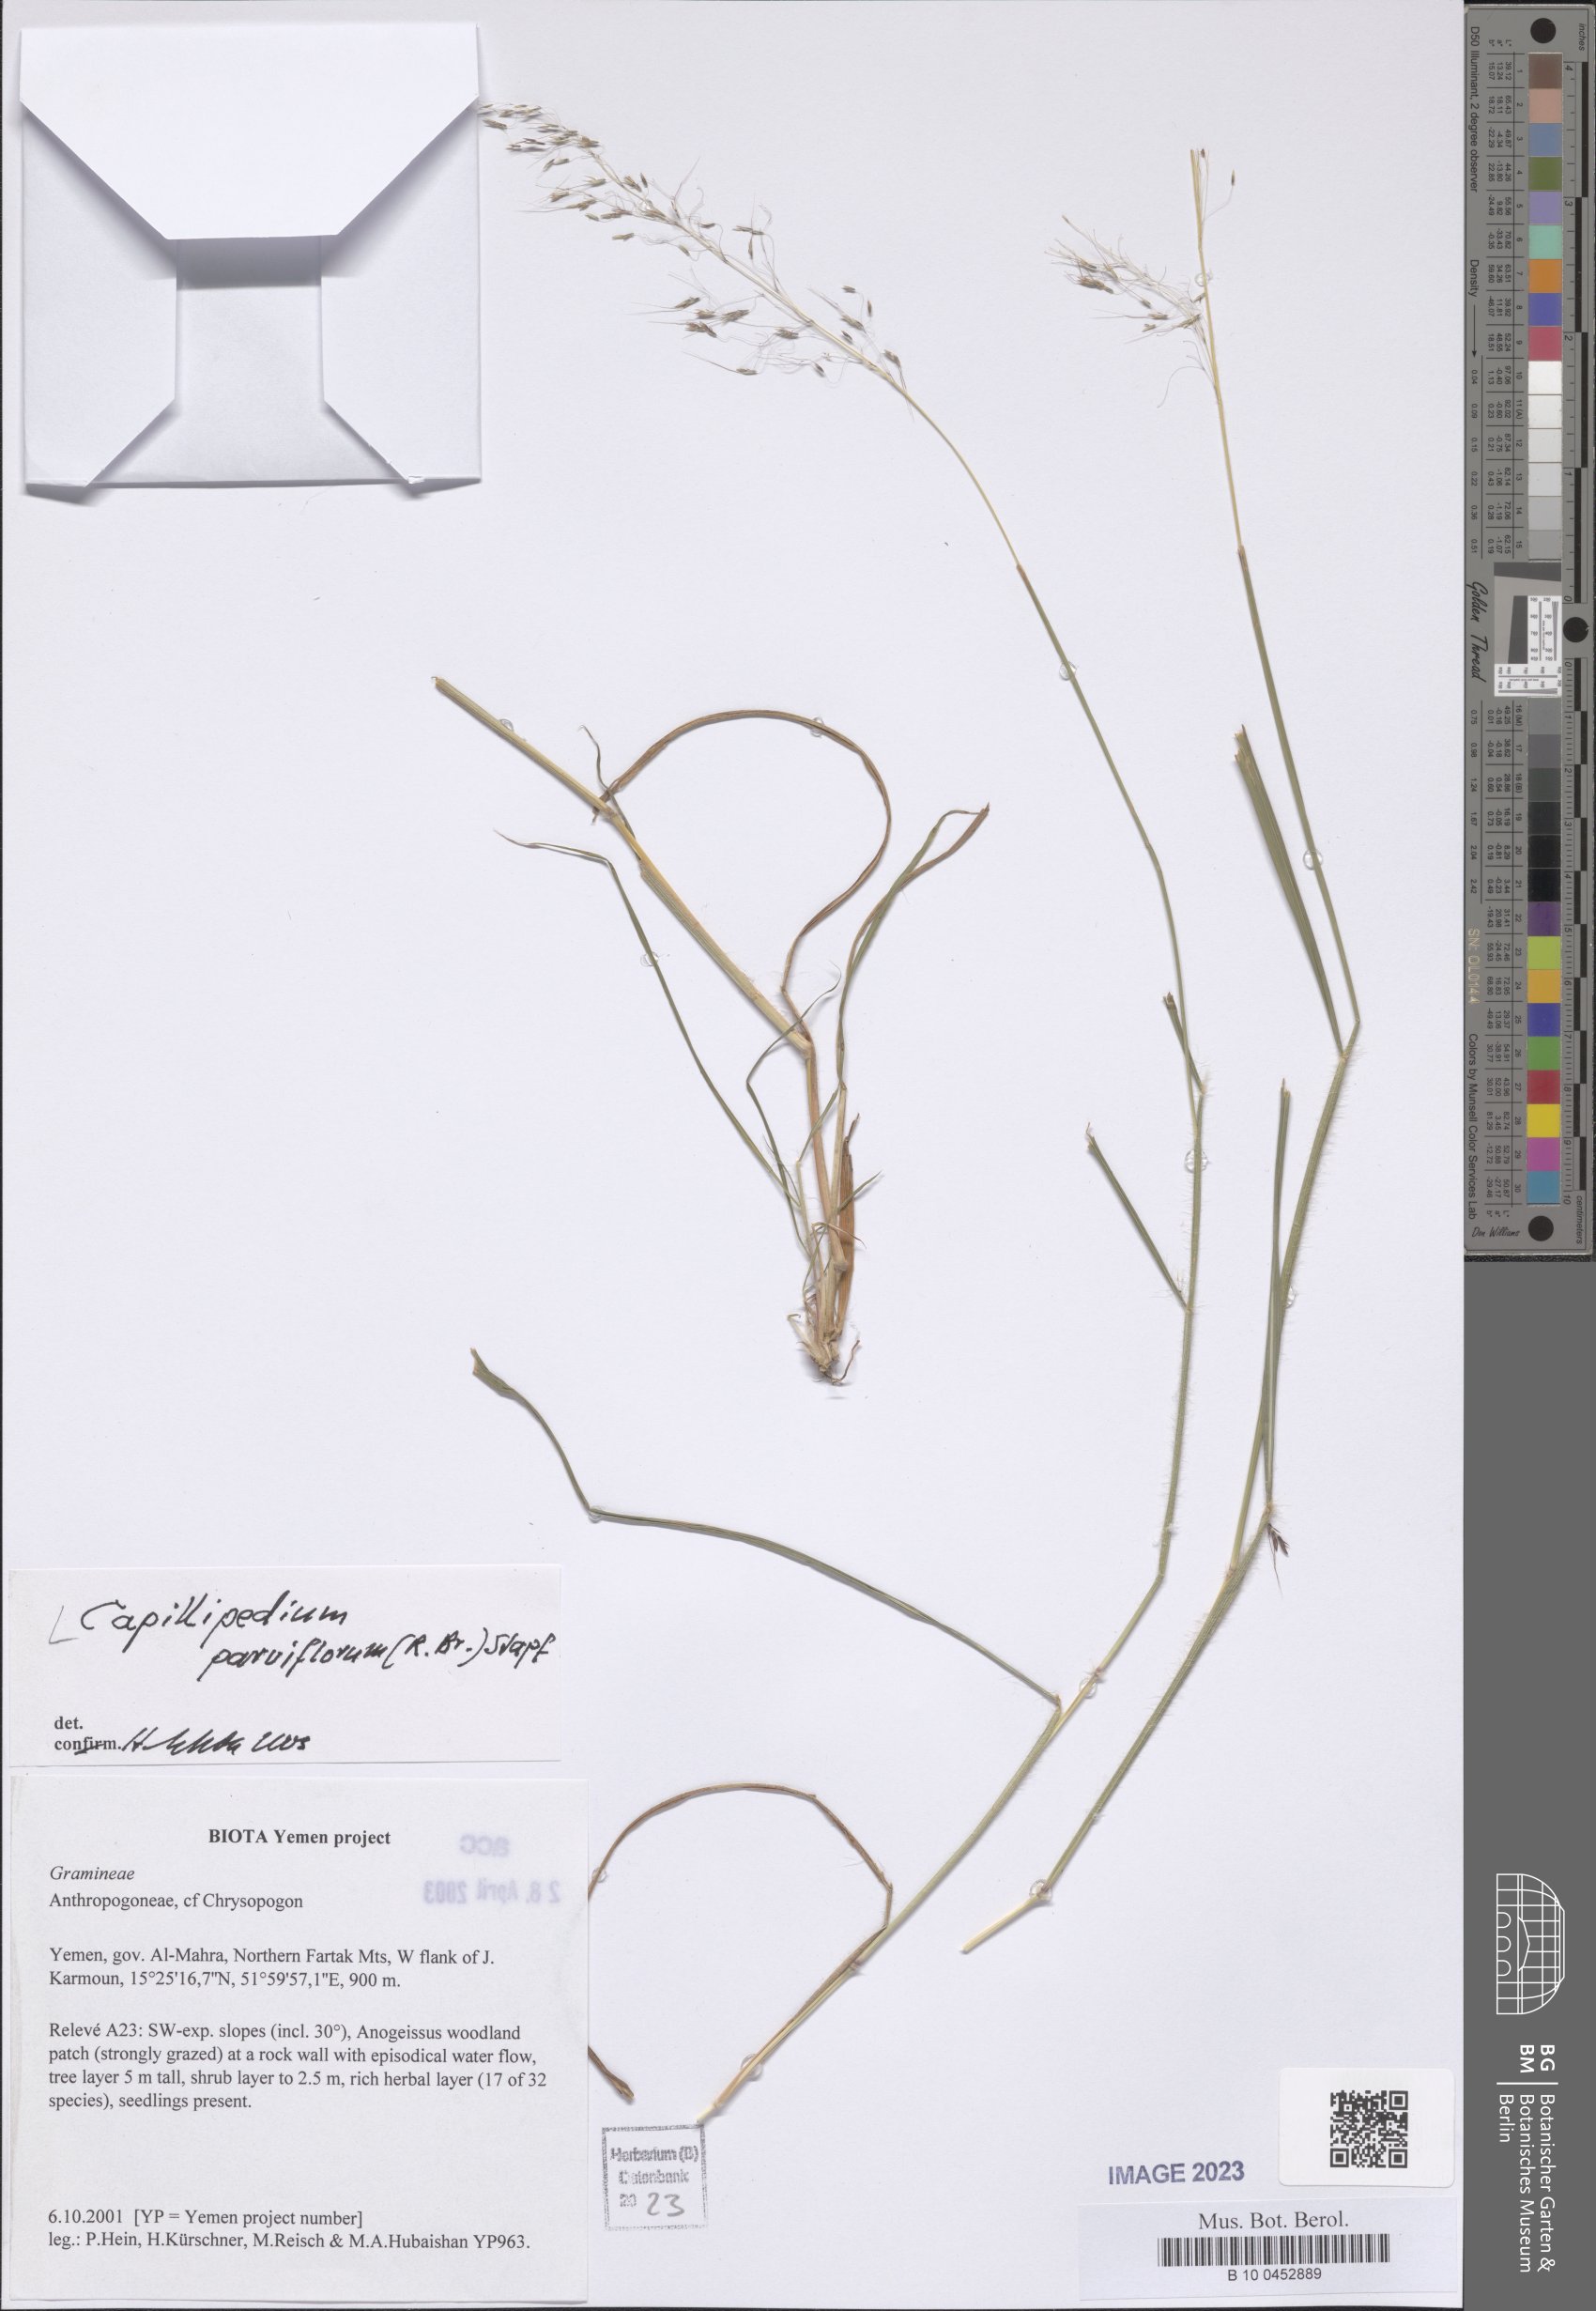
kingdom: Plantae
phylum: Tracheophyta
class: Liliopsida
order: Poales
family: Poaceae
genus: Capillipedium
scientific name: Capillipedium parviflorum
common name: Golden-beard
